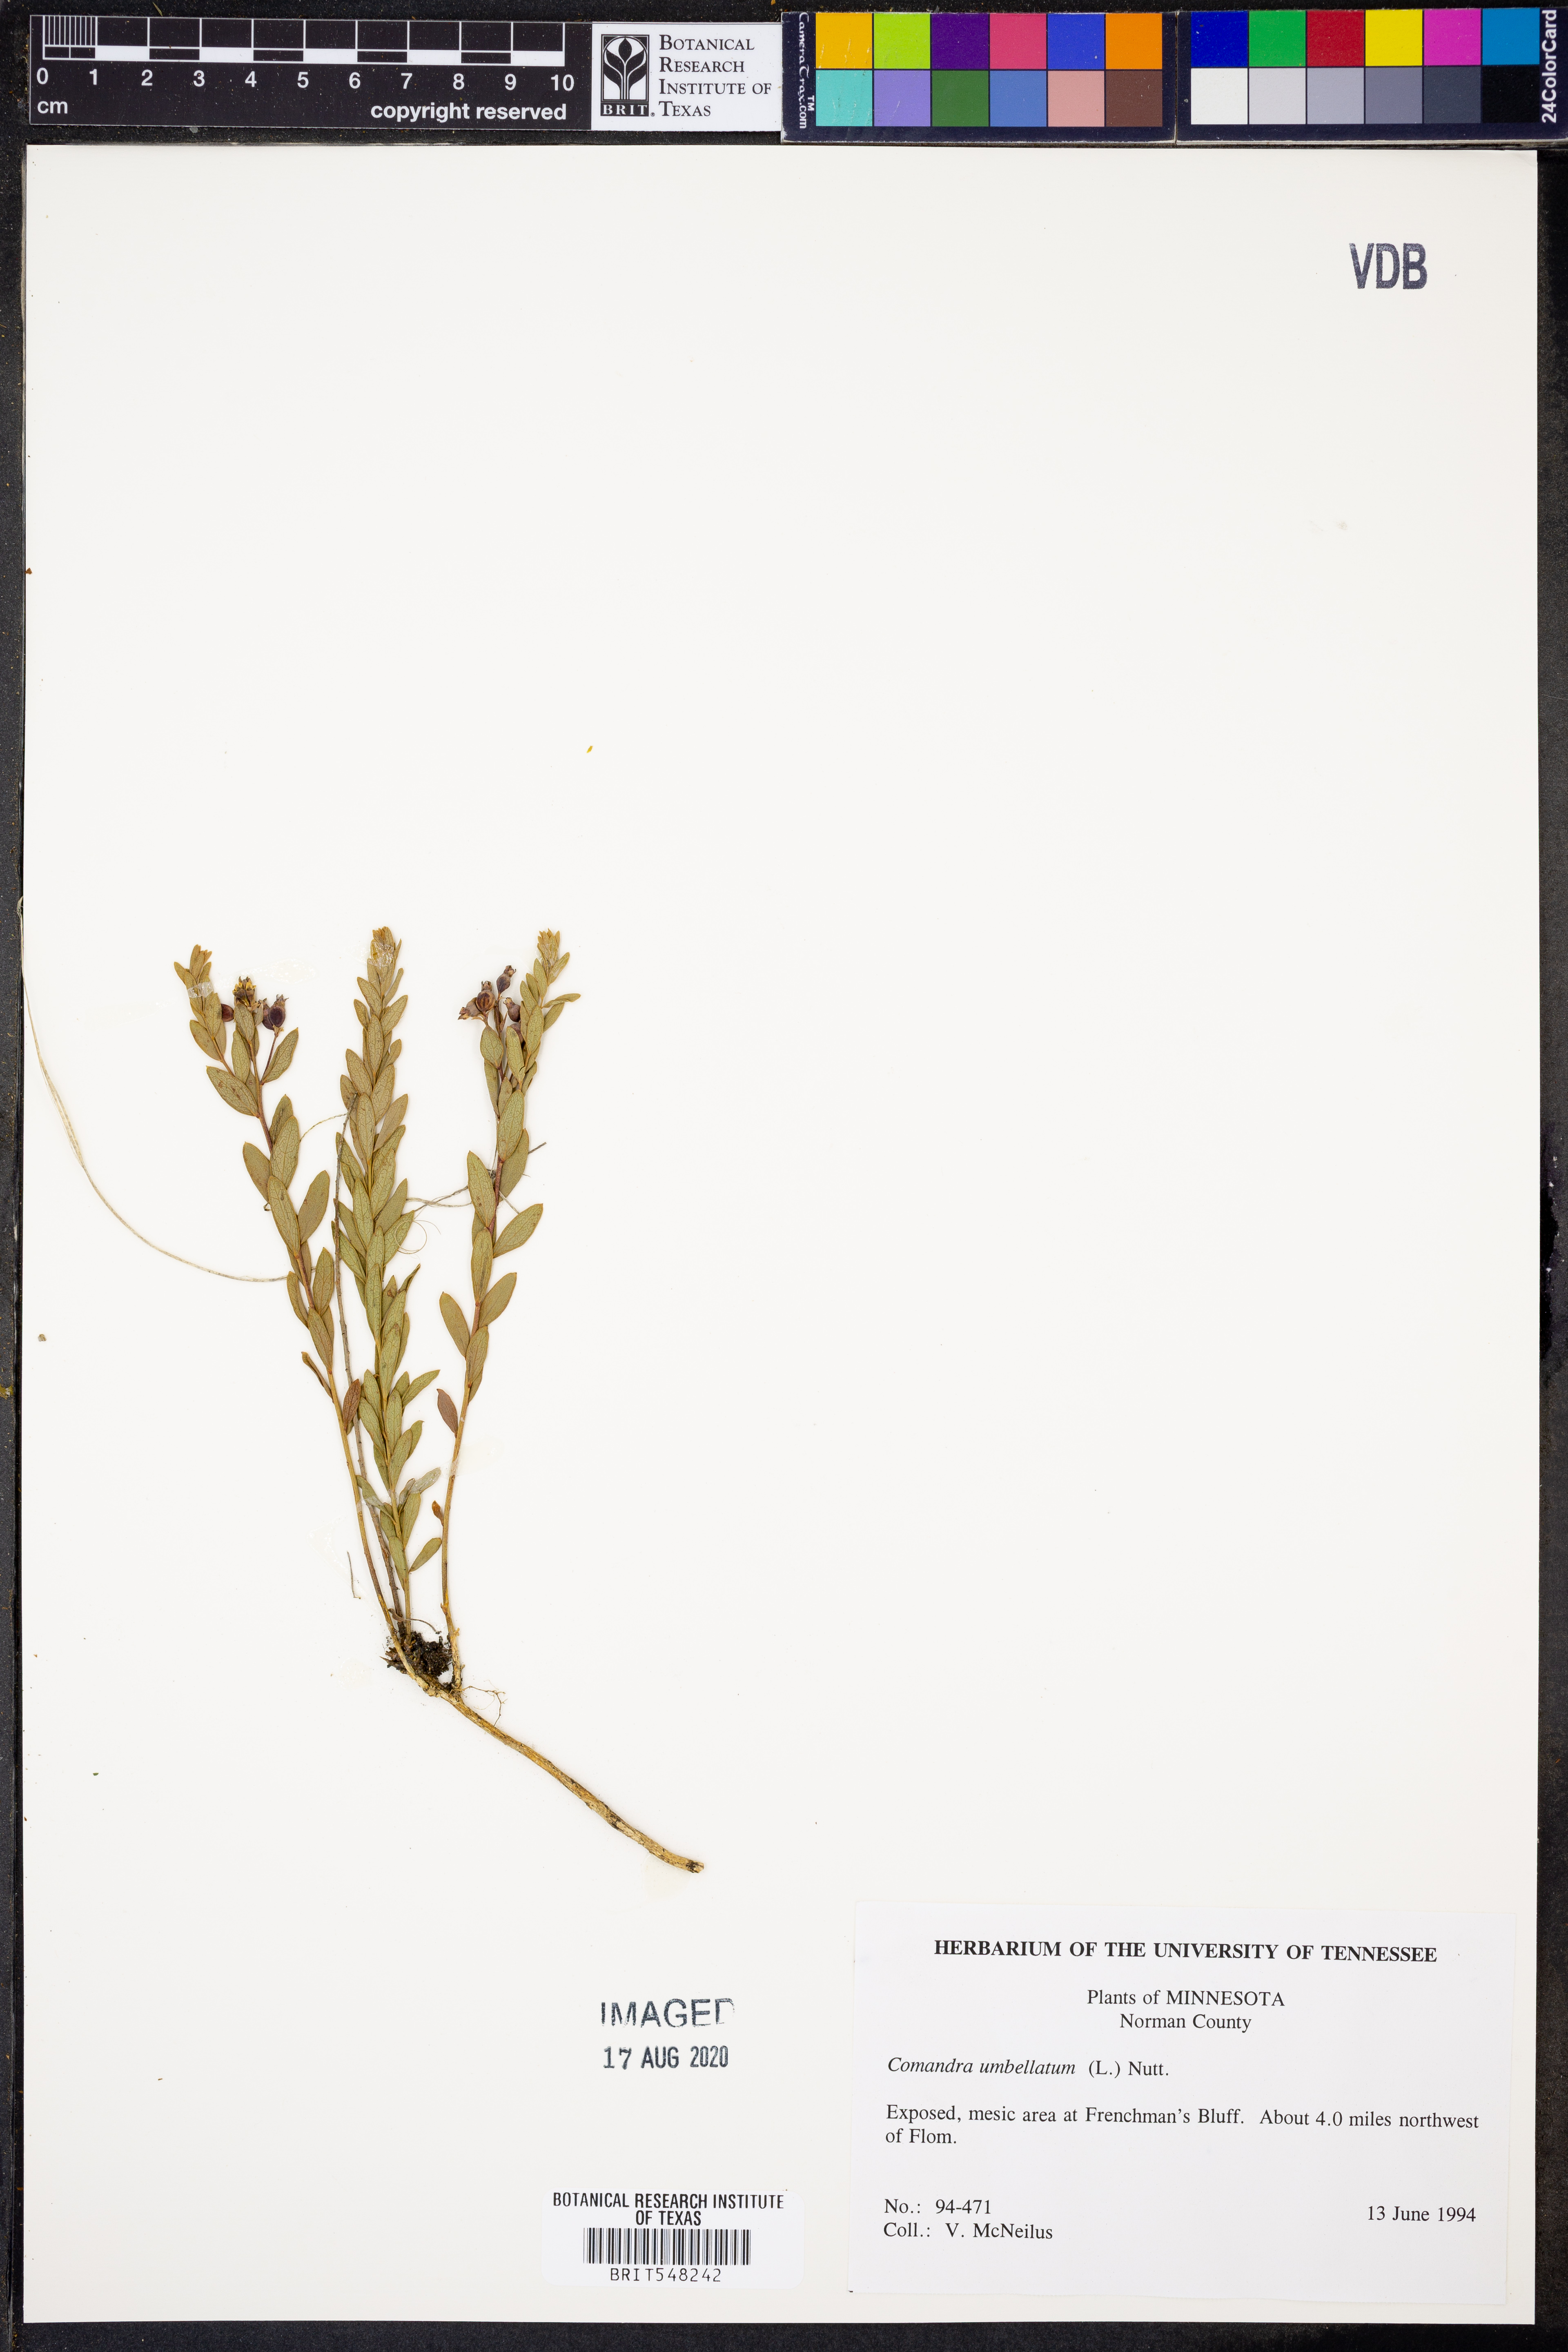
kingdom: Plantae
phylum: Tracheophyta
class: Magnoliopsida
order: Santalales
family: Comandraceae
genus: Comandra
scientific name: Comandra umbellata
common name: Bastard toadflax
